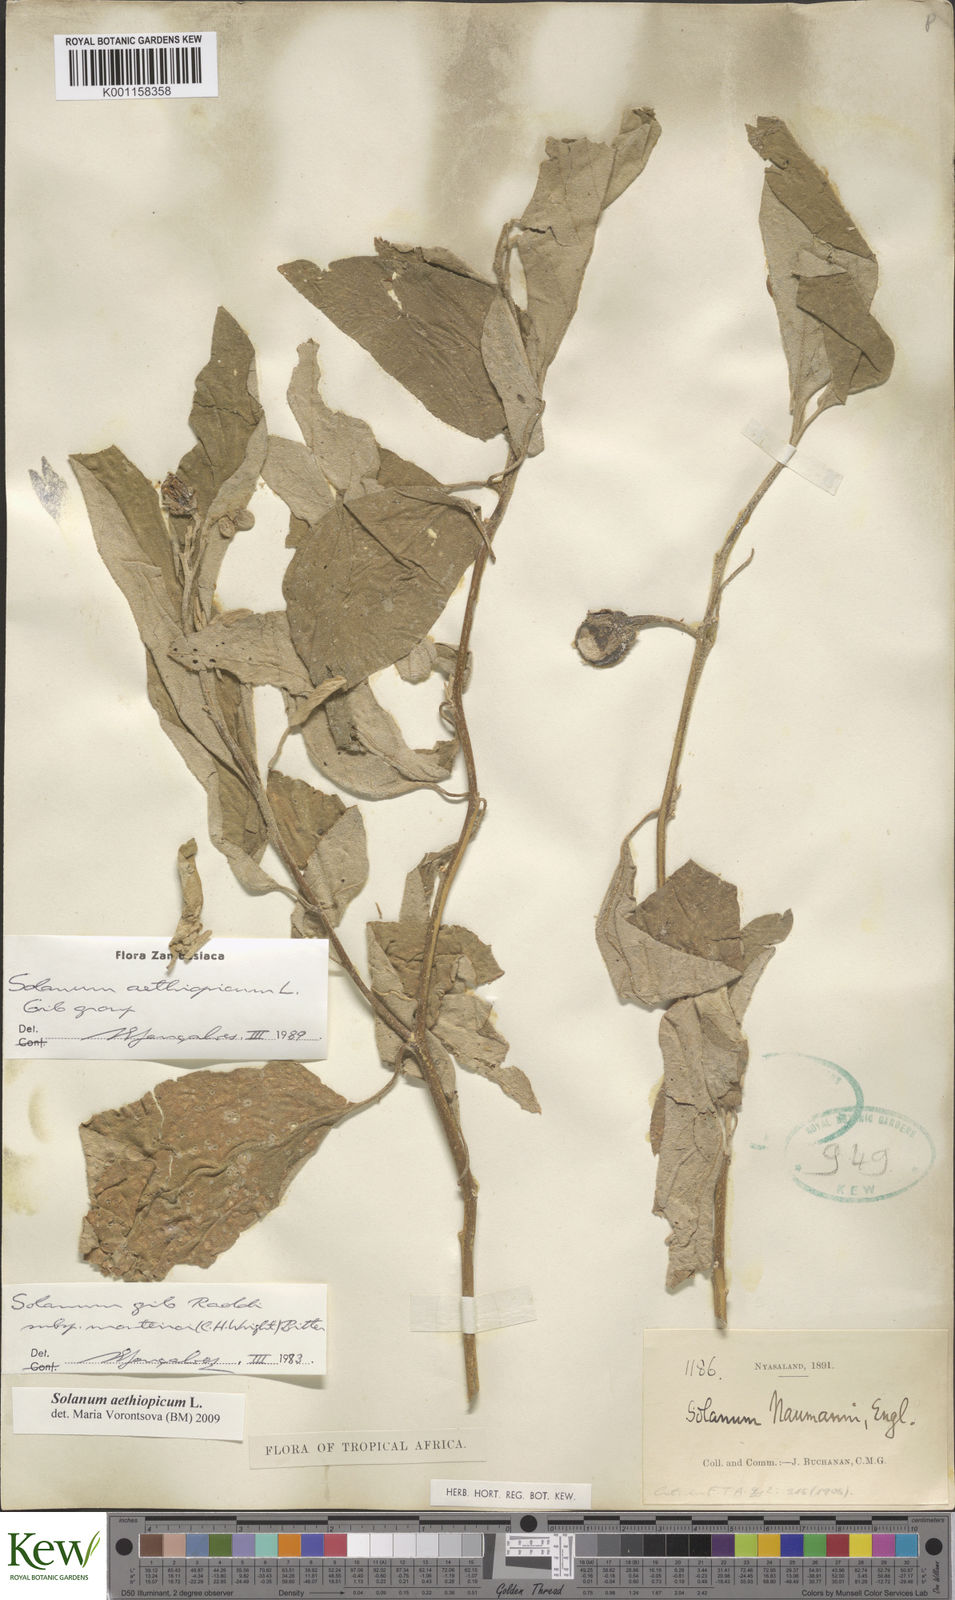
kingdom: Plantae
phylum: Tracheophyta
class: Magnoliopsida
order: Solanales
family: Solanaceae
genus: Solanum
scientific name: Solanum aethiopicum
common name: Gilo
